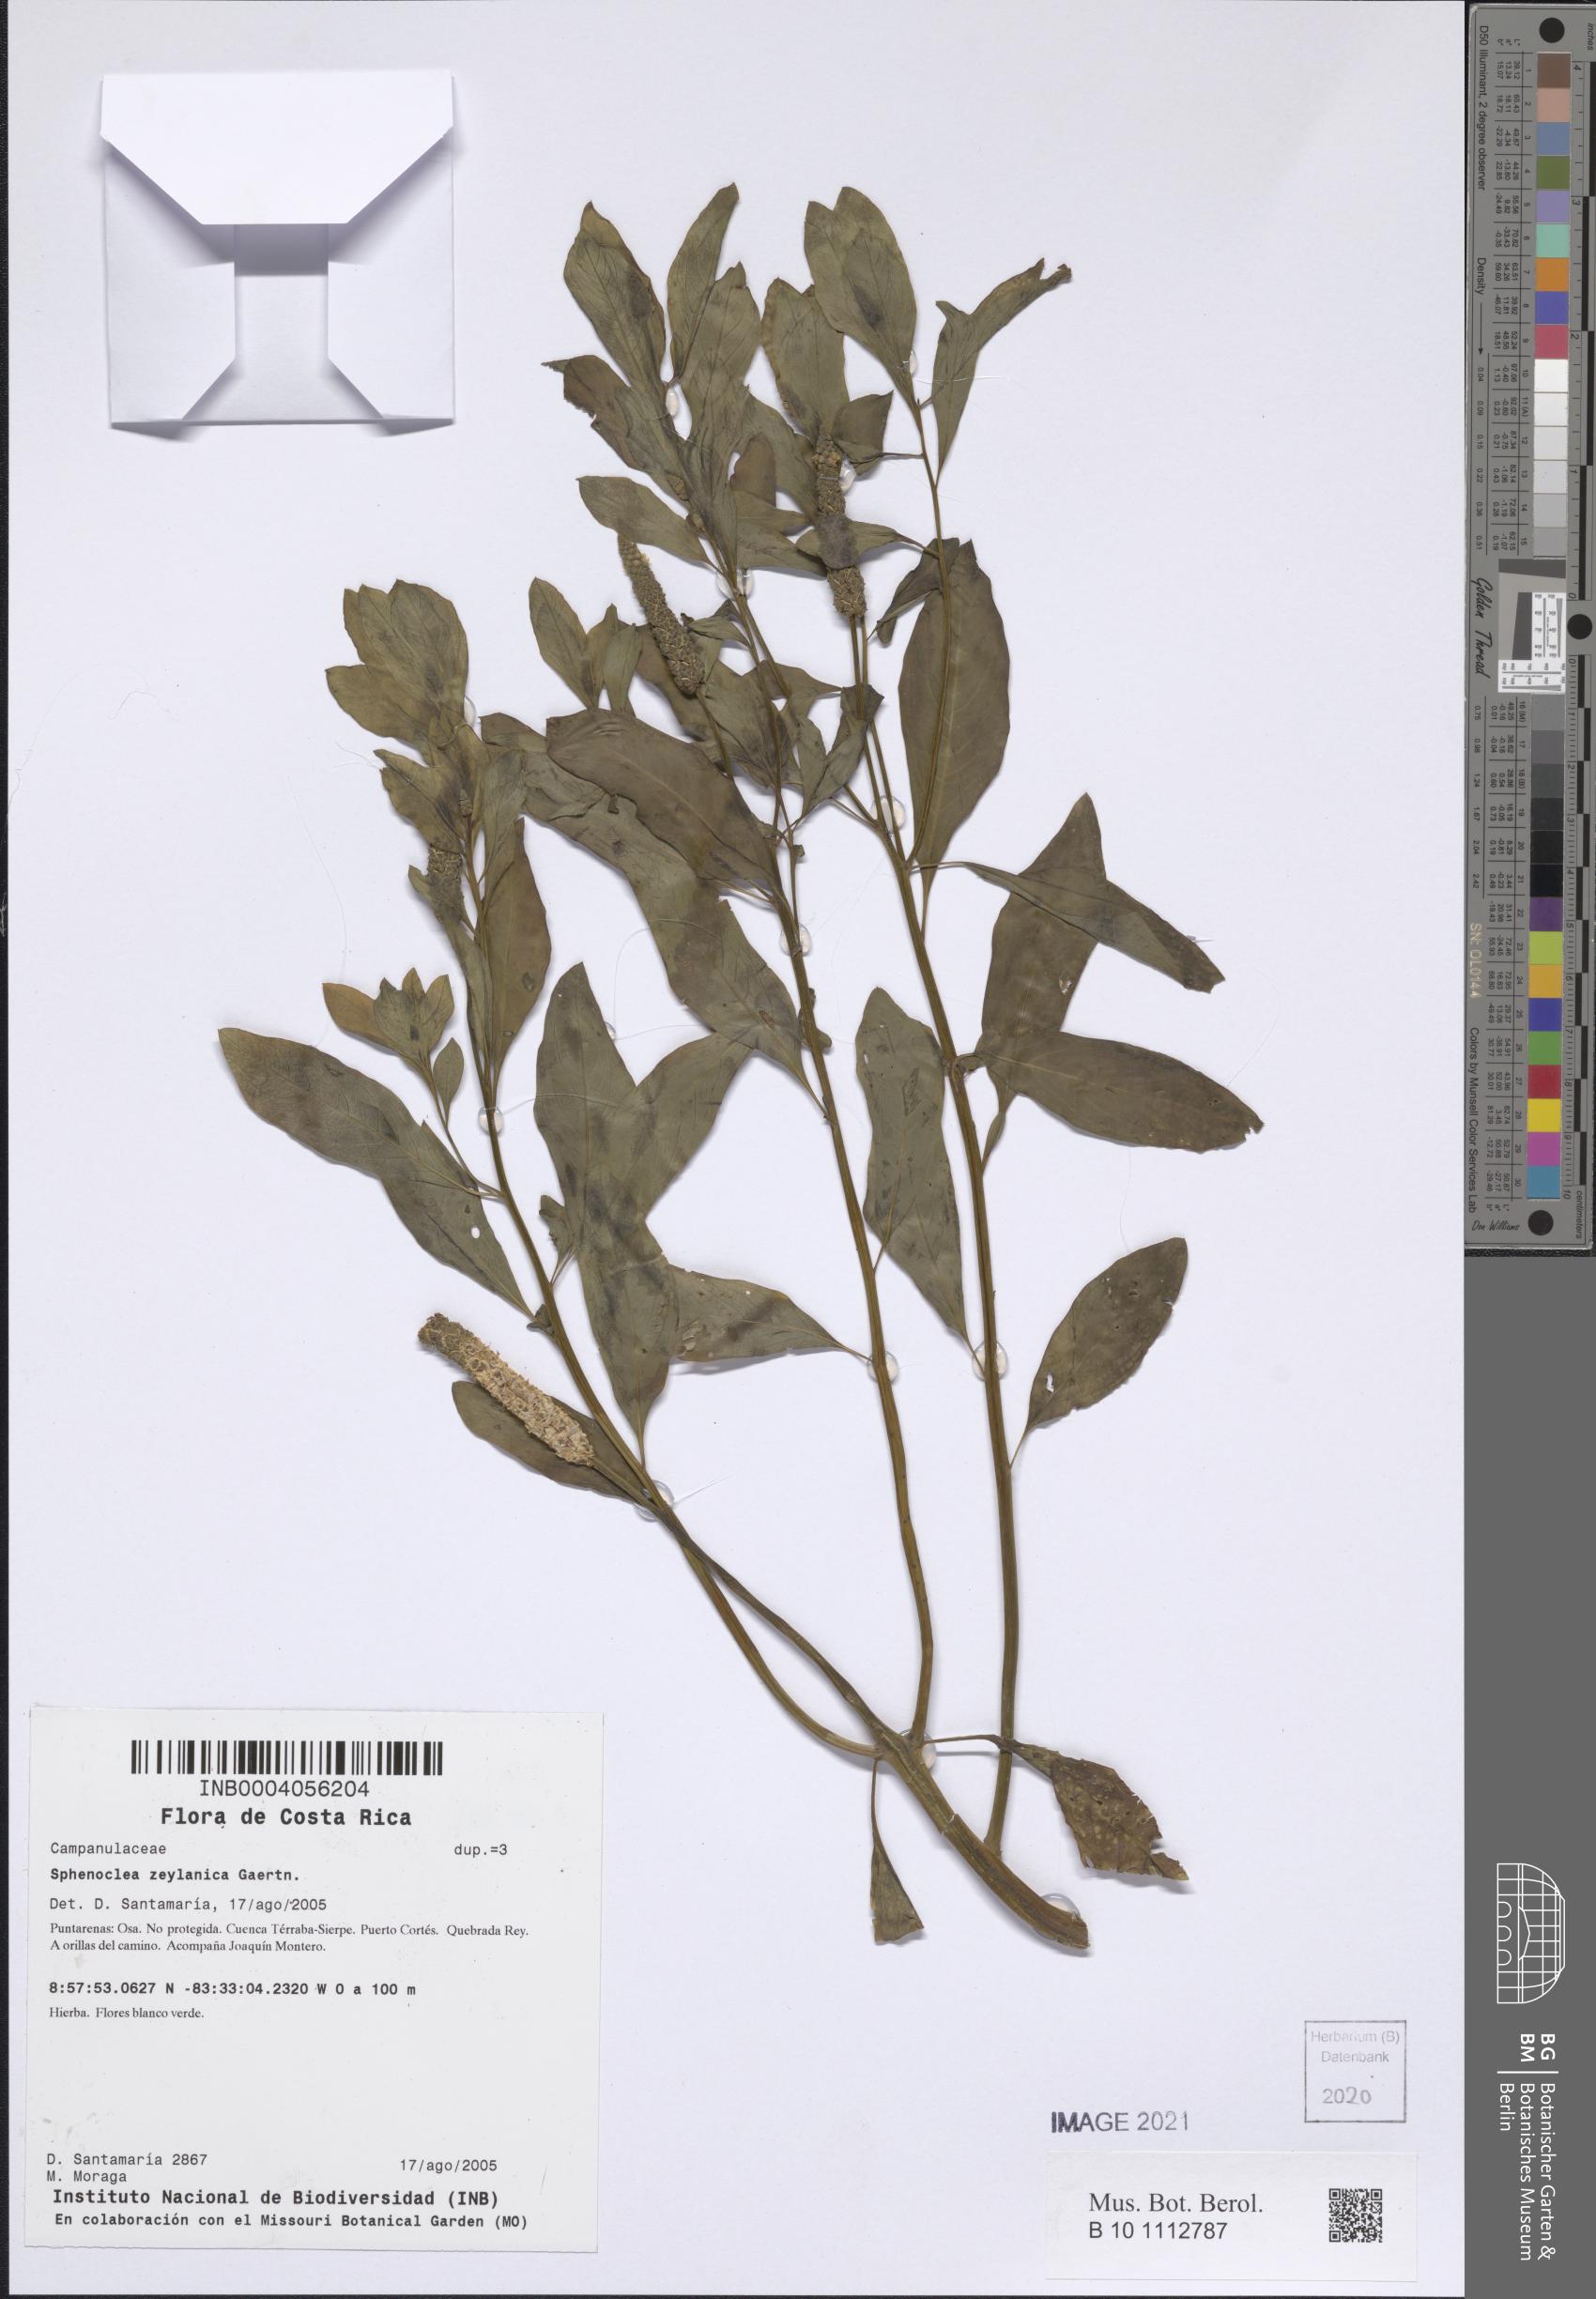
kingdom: Plantae
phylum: Tracheophyta
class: Magnoliopsida
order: Solanales
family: Sphenocleaceae
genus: Sphenoclea
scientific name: Sphenoclea zeylanica
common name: Chickenspike
